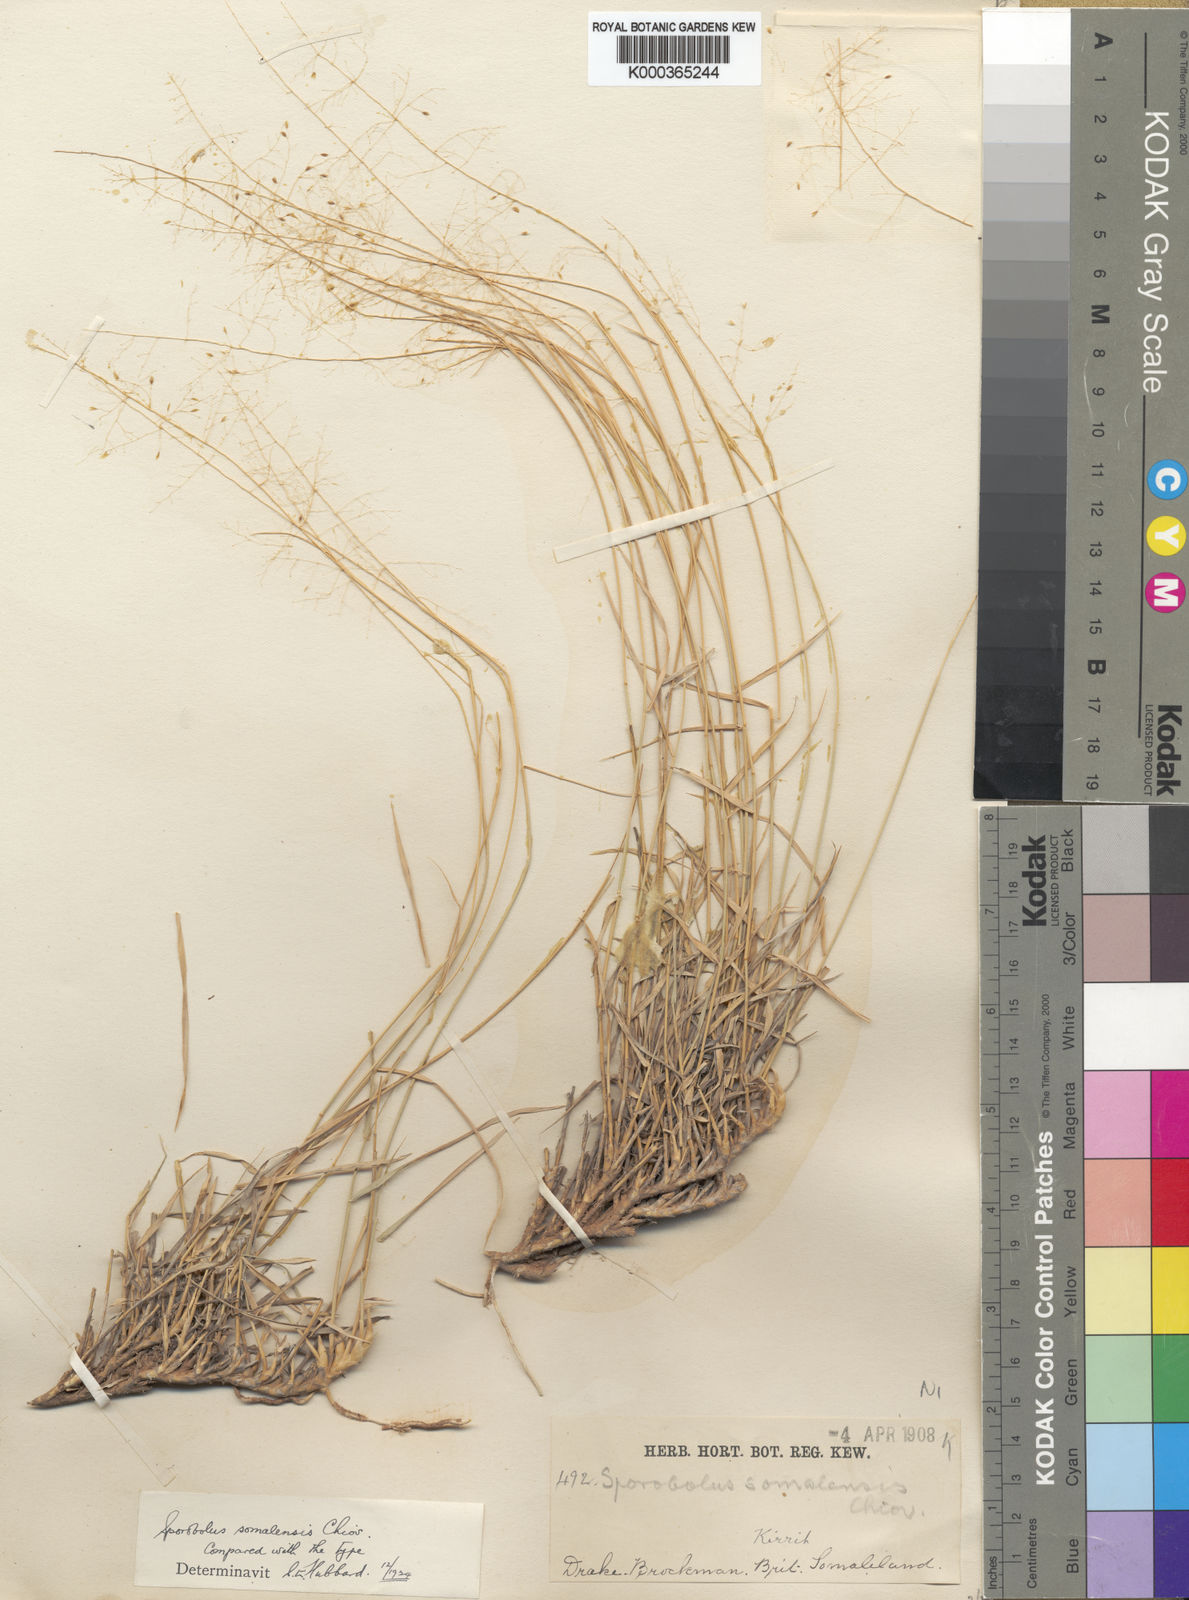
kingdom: Plantae
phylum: Tracheophyta
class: Liliopsida
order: Poales
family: Poaceae
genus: Sporobolus
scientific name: Sporobolus somalensis
